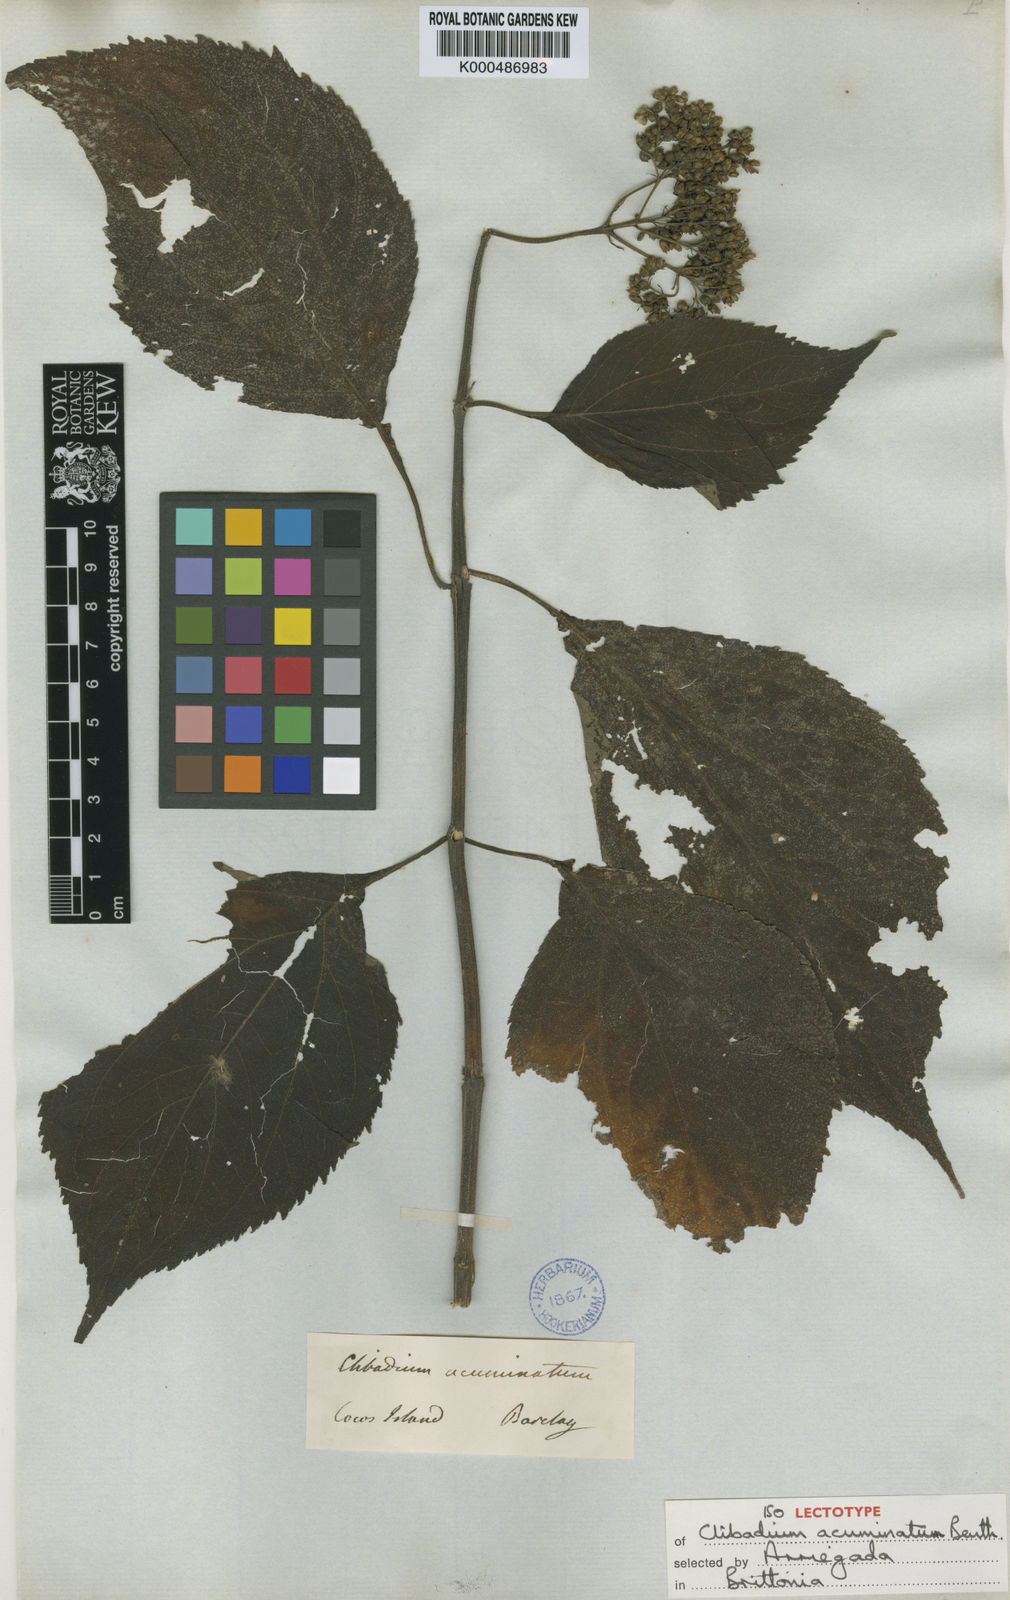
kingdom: Plantae
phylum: Tracheophyta
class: Magnoliopsida
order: Asterales
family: Asteraceae
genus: Clibadium
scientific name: Clibadium acuminatum
